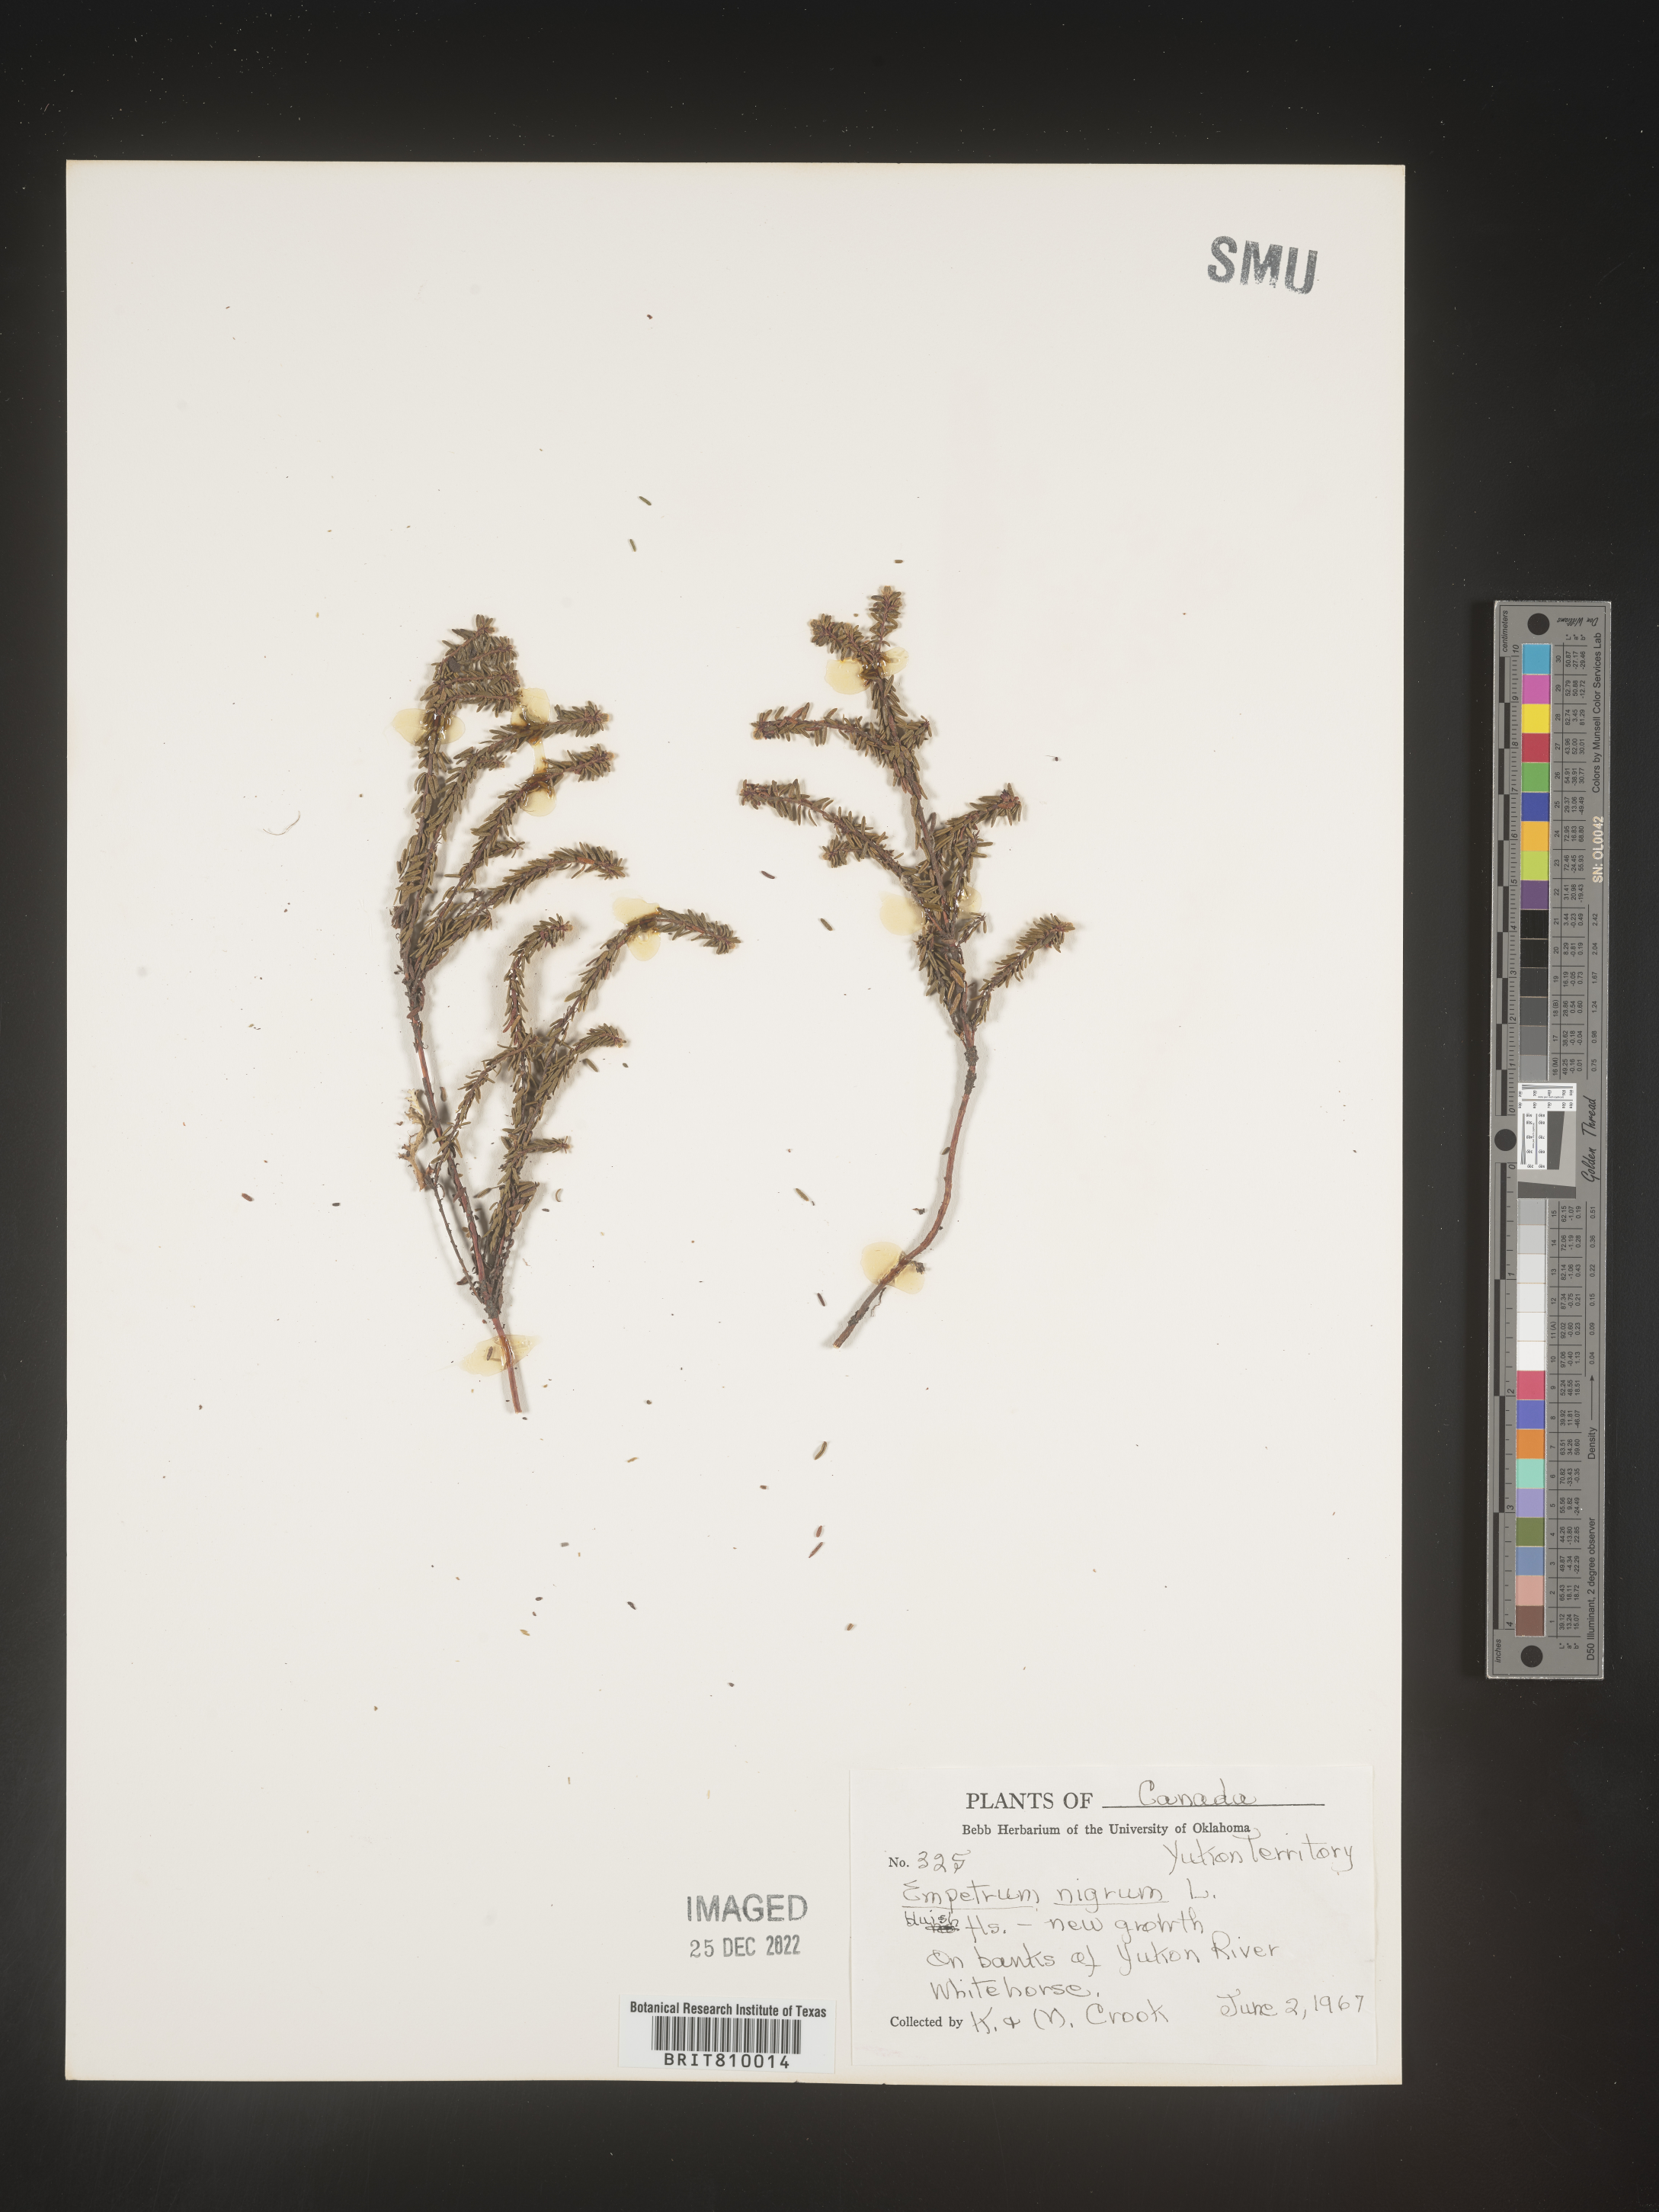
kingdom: Plantae
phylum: Tracheophyta
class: Magnoliopsida
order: Ericales
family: Ericaceae
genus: Empetrum
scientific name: Empetrum
